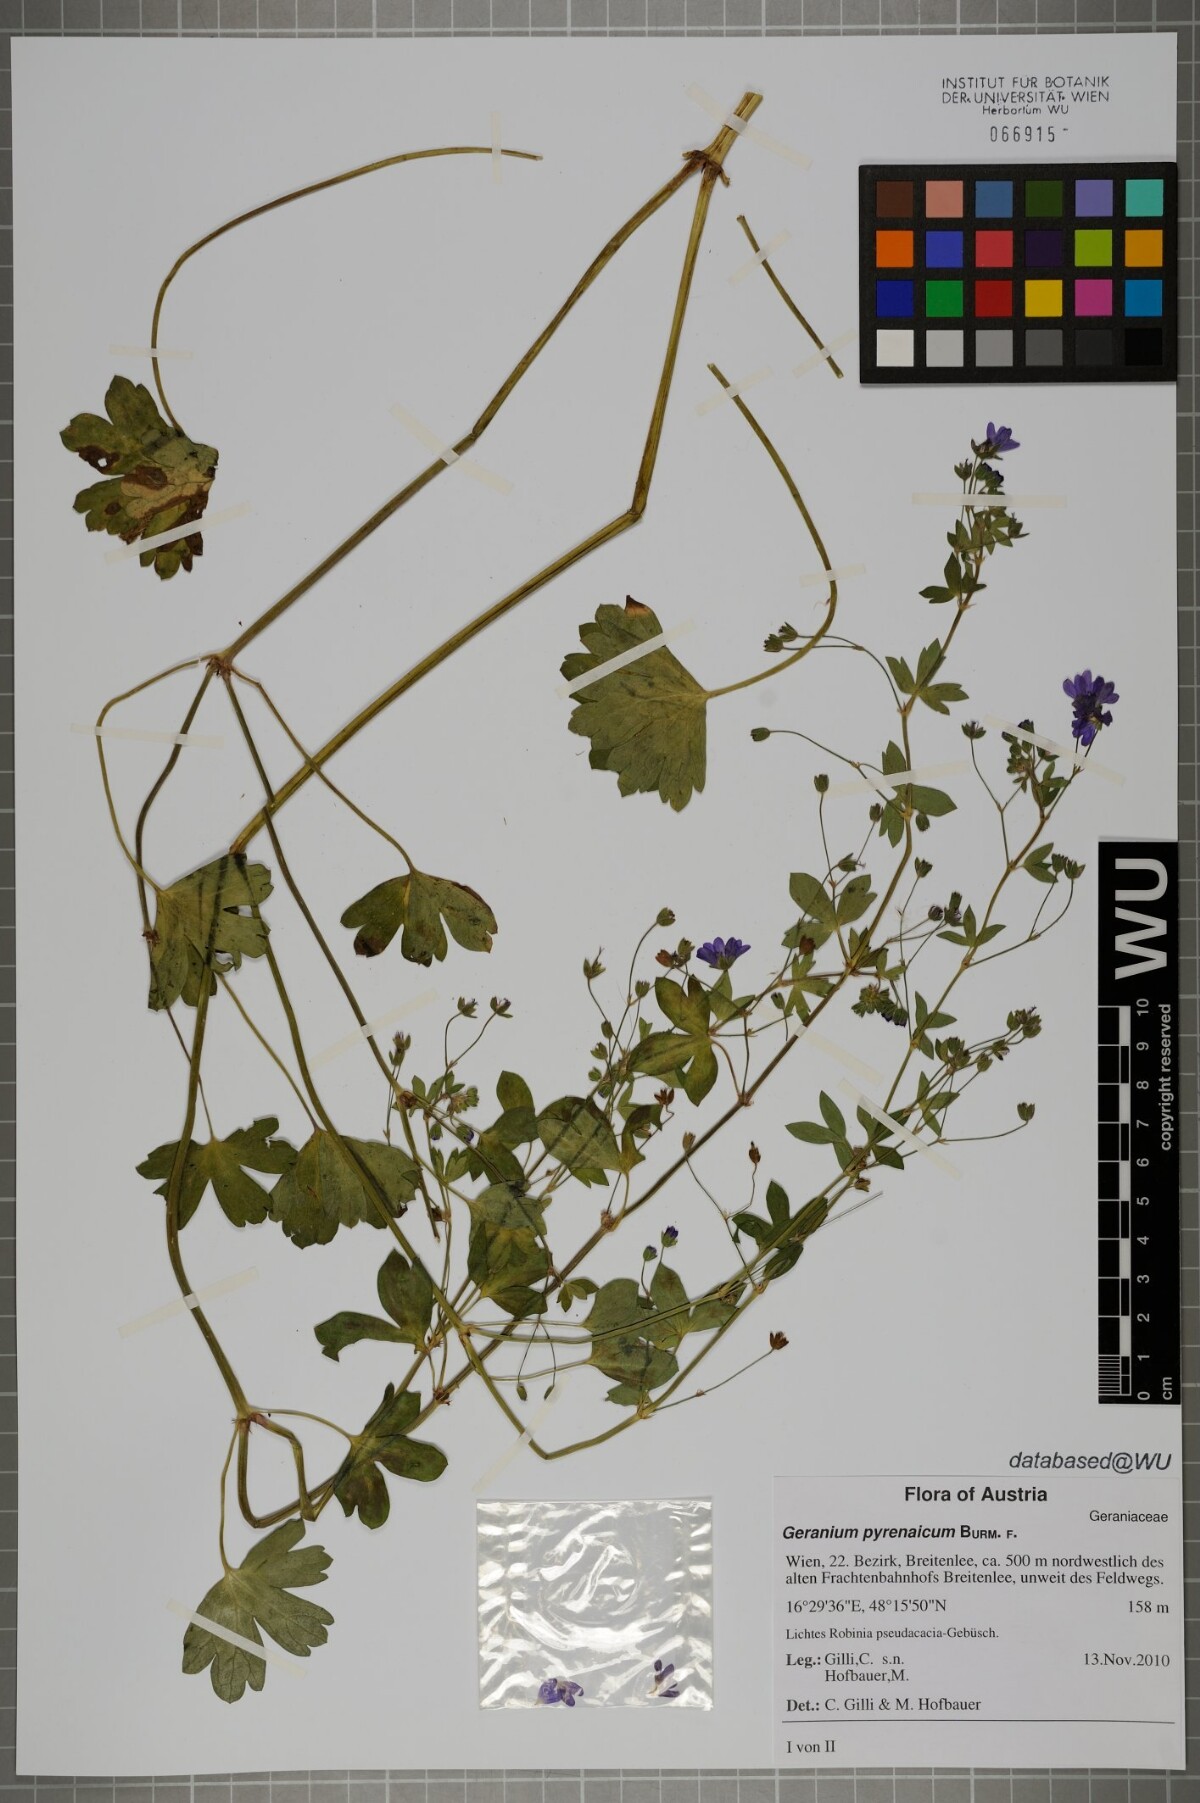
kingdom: Plantae
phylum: Tracheophyta
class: Magnoliopsida
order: Geraniales
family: Geraniaceae
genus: Geranium
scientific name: Geranium pyrenaicum
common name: Hedgerow crane's-bill
